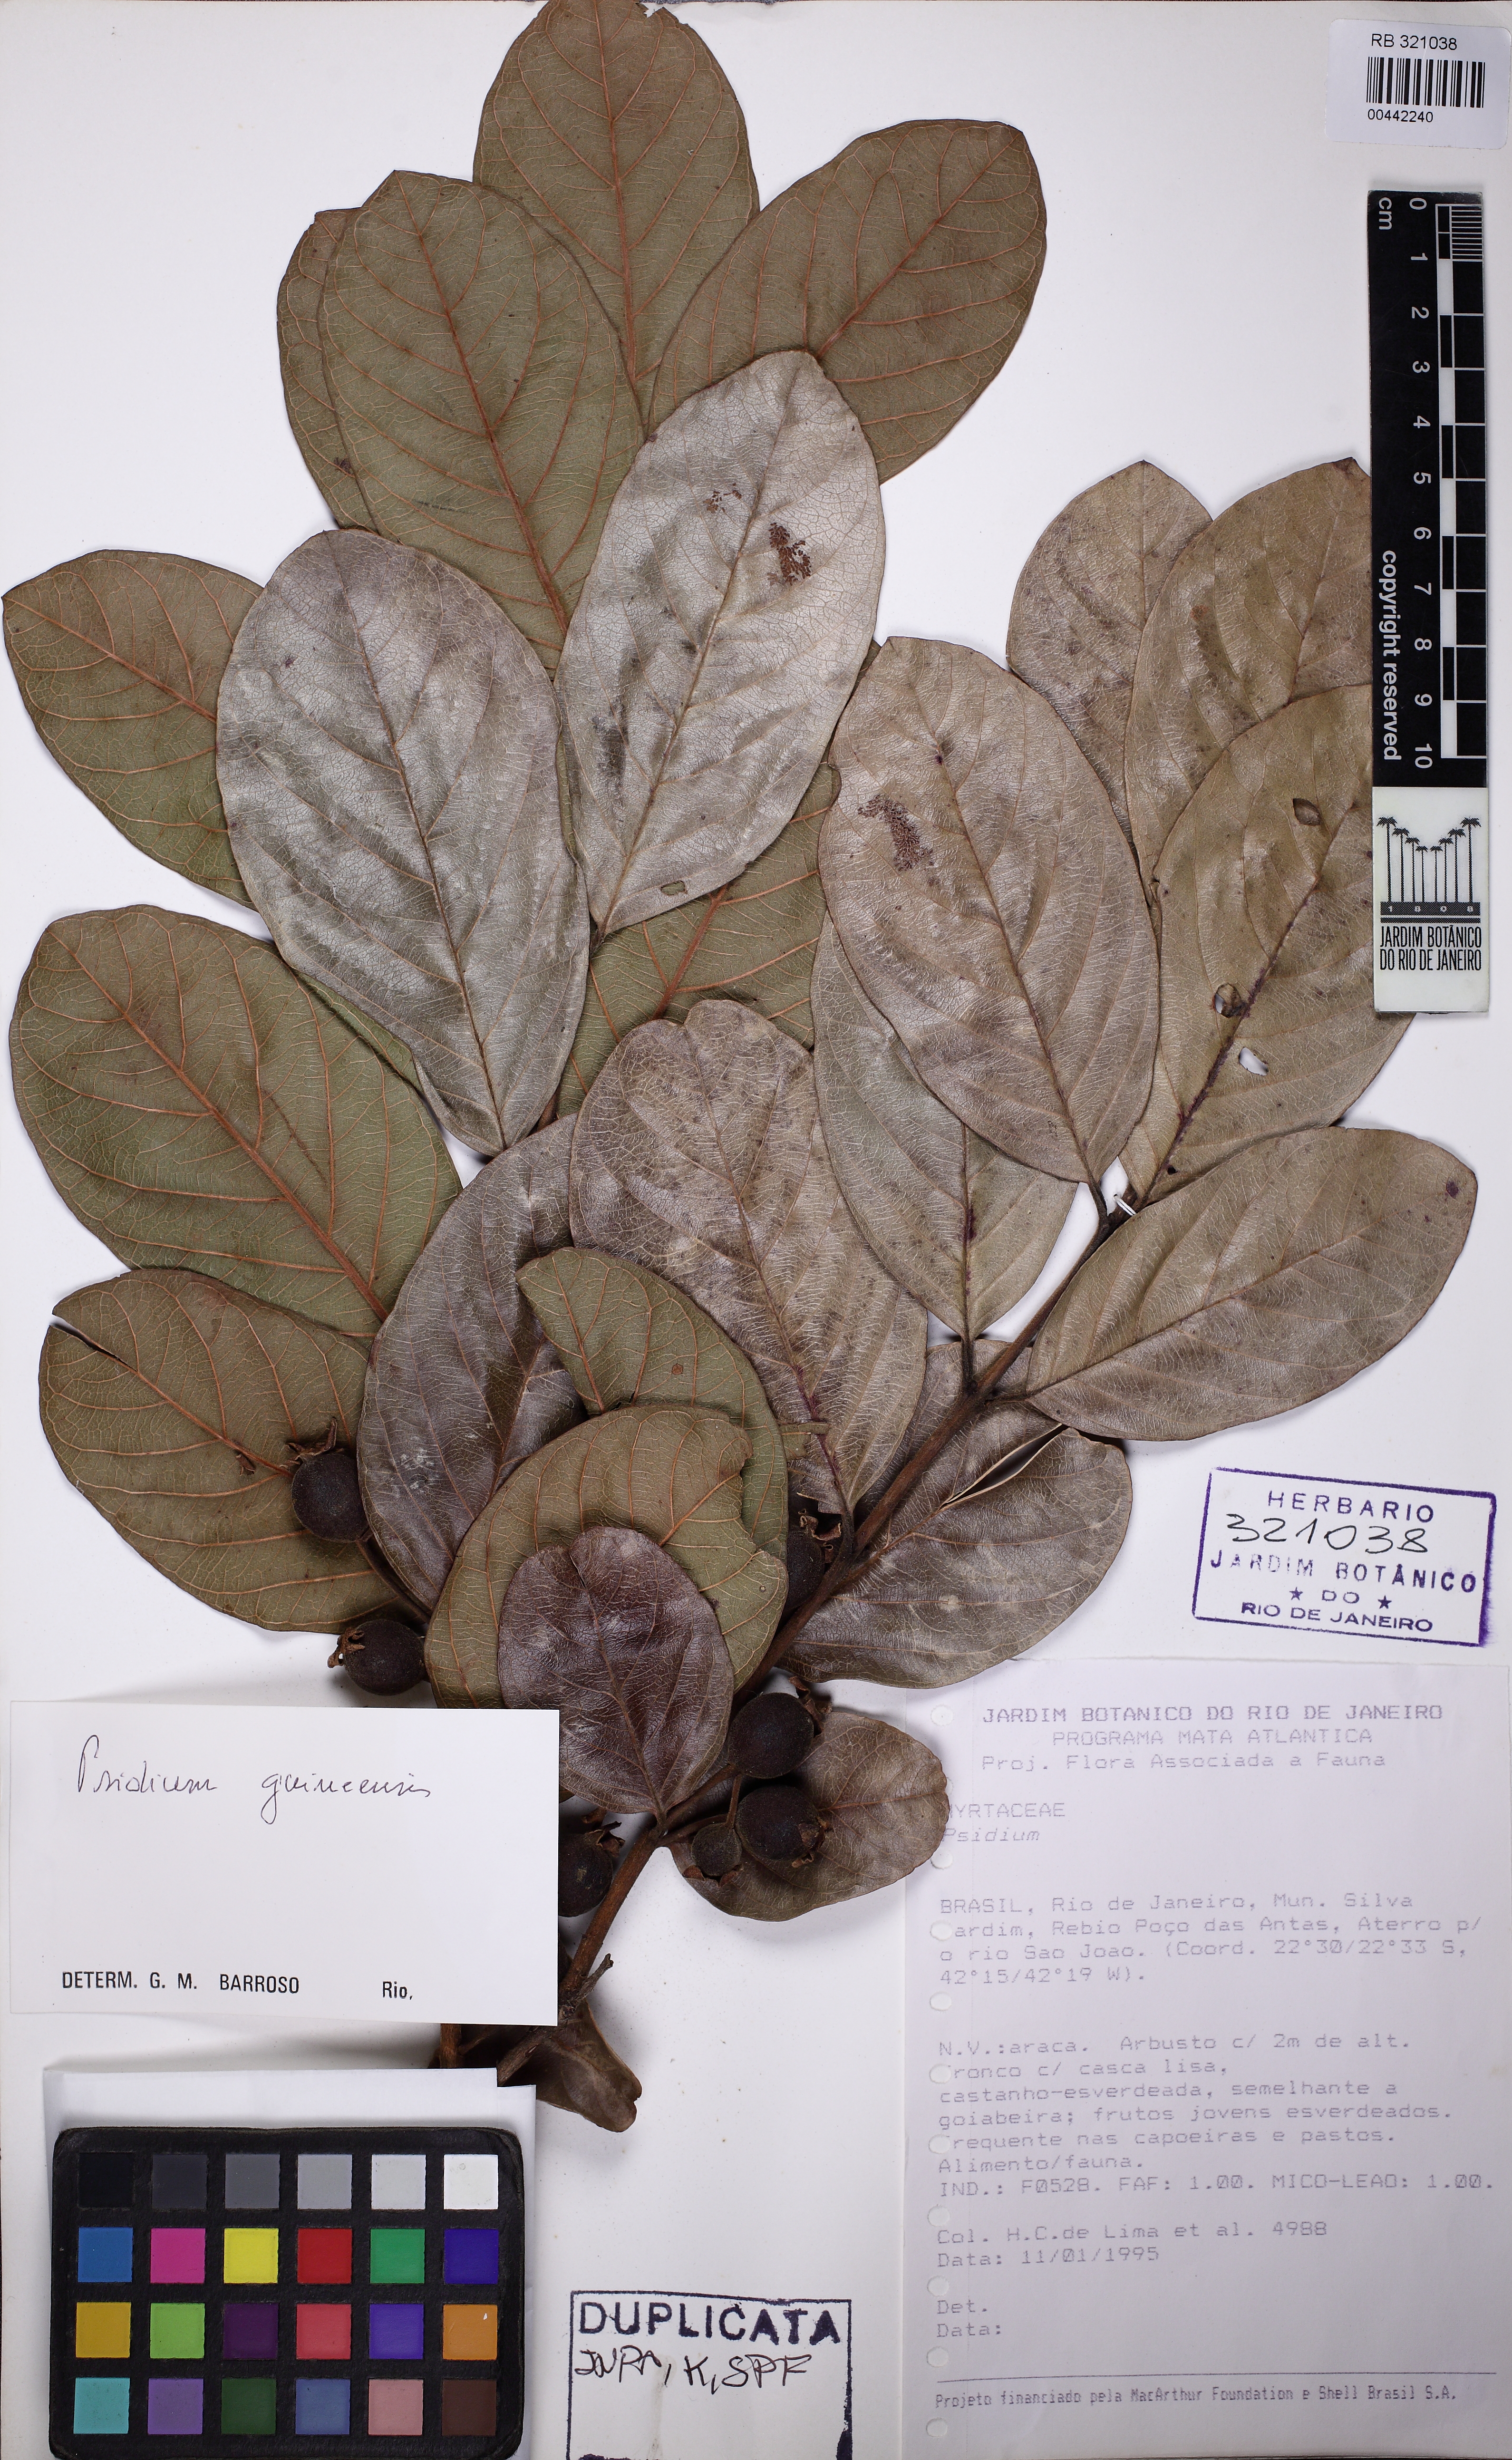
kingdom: Plantae
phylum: Tracheophyta
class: Magnoliopsida
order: Myrtales
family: Myrtaceae
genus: Psidium
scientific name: Psidium guineense
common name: Brazilian guava
